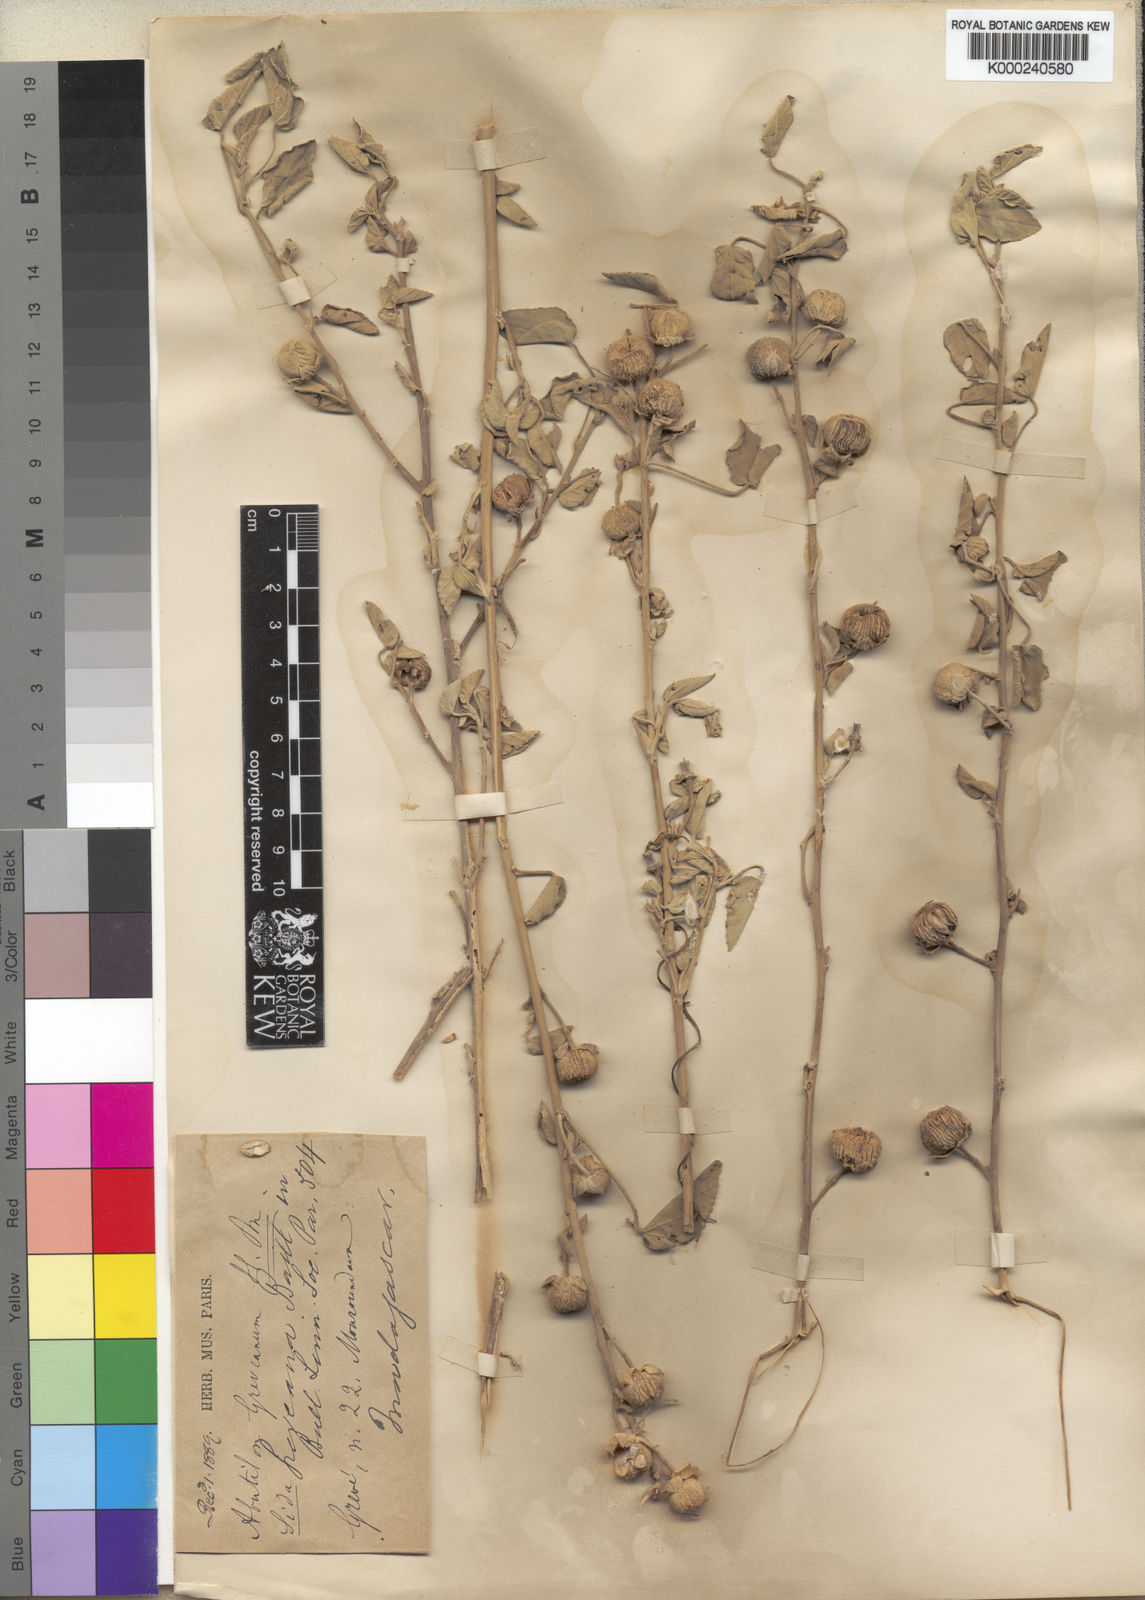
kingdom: Plantae
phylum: Tracheophyta
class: Magnoliopsida
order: Malvales
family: Malvaceae
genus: Abutilon
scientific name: Abutilon greveanum
